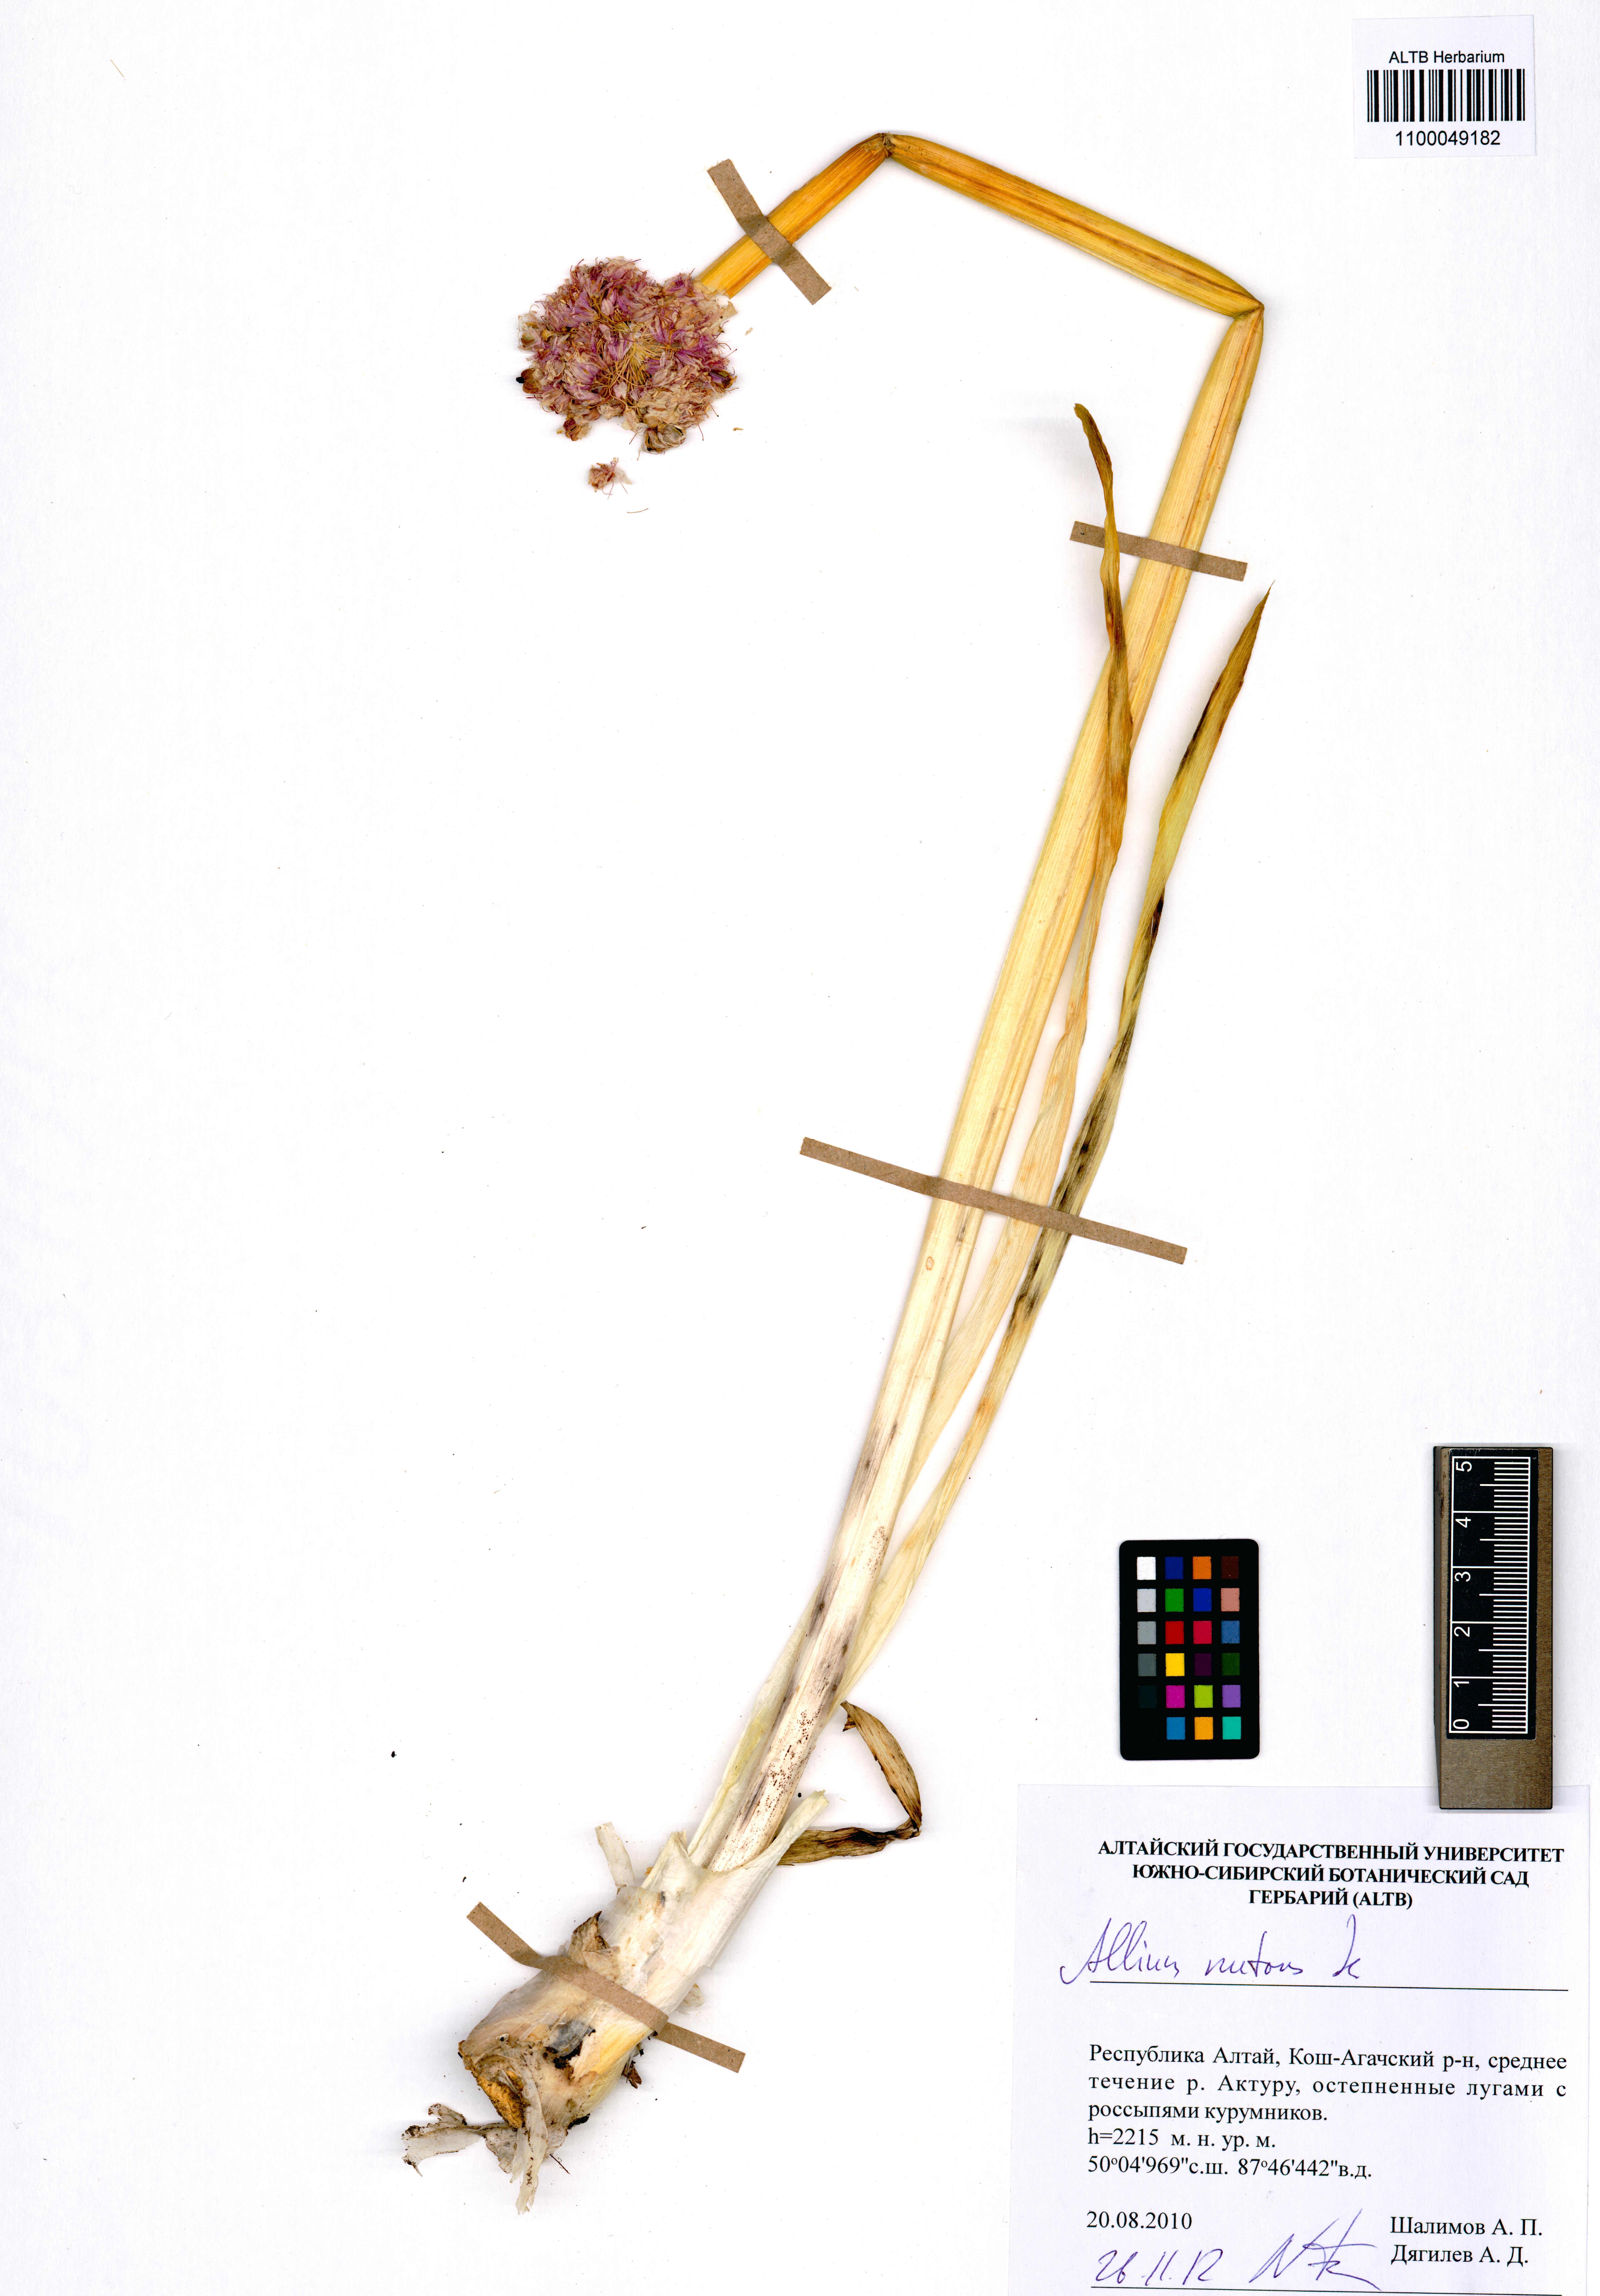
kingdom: Plantae
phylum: Tracheophyta
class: Liliopsida
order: Asparagales
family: Amaryllidaceae
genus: Allium
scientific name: Allium nutans
